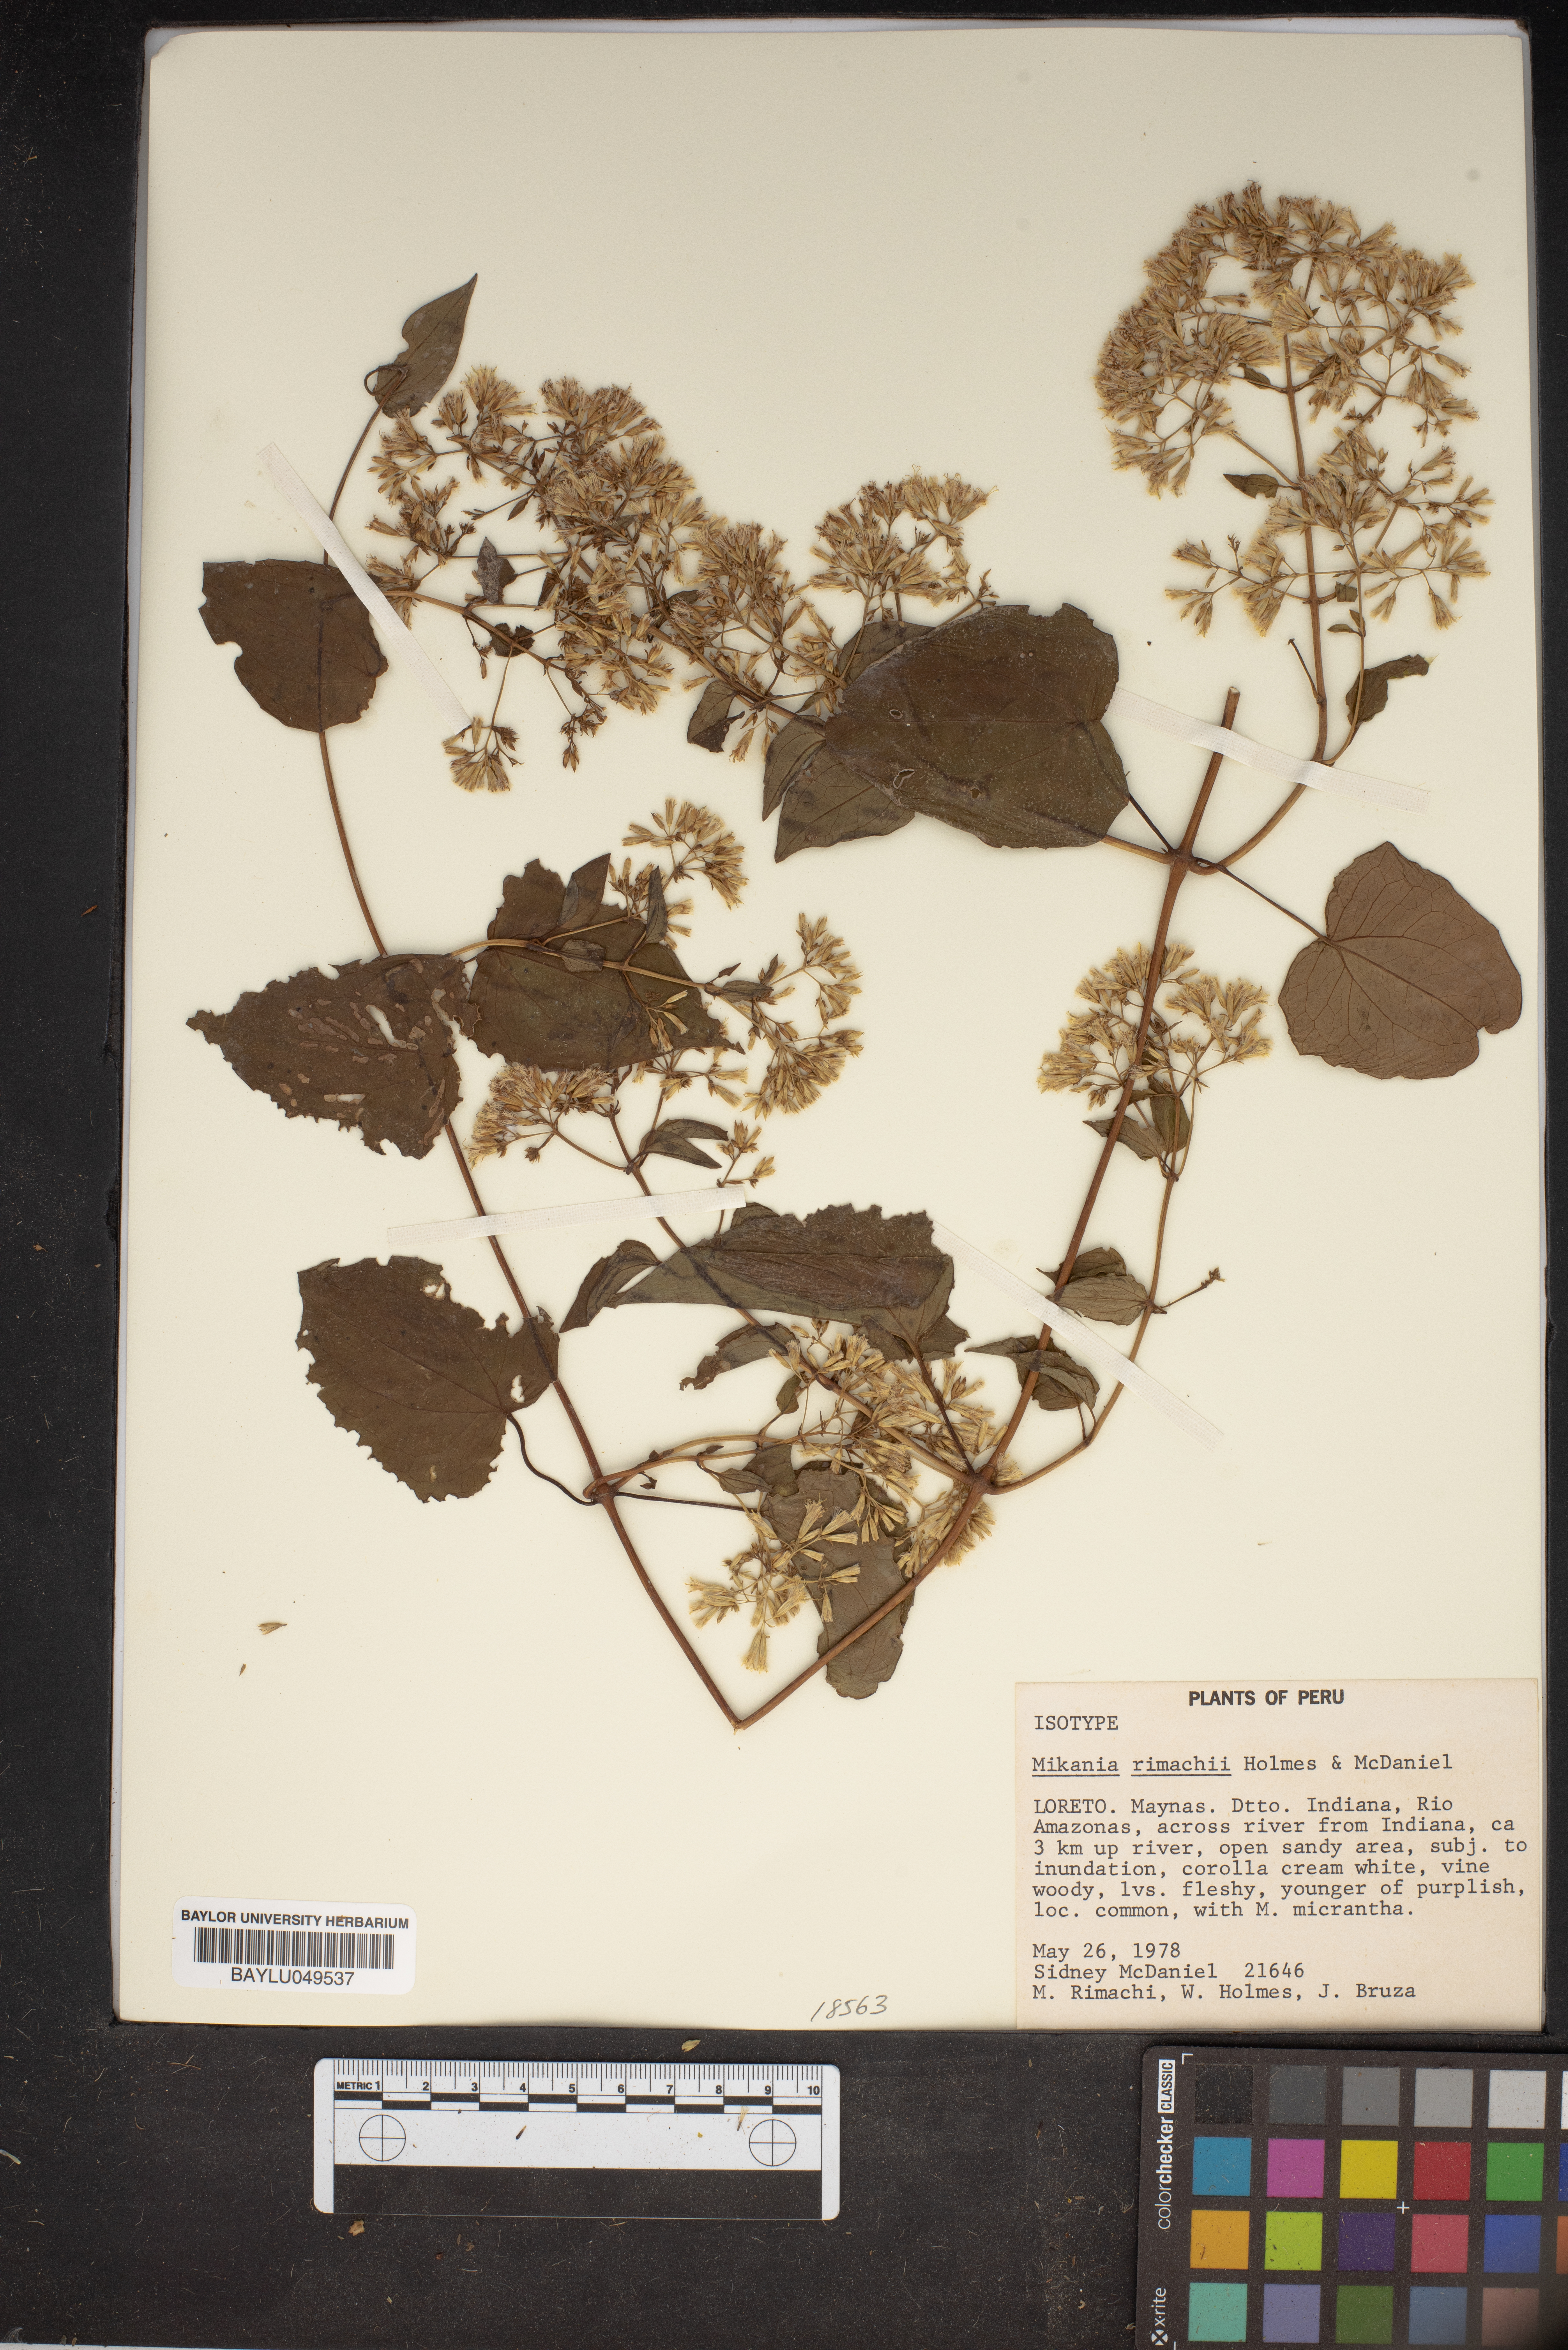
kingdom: Plantae
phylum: Tracheophyta
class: Magnoliopsida
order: Asterales
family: Asteraceae
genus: Mikania
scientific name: Mikania rimachii
